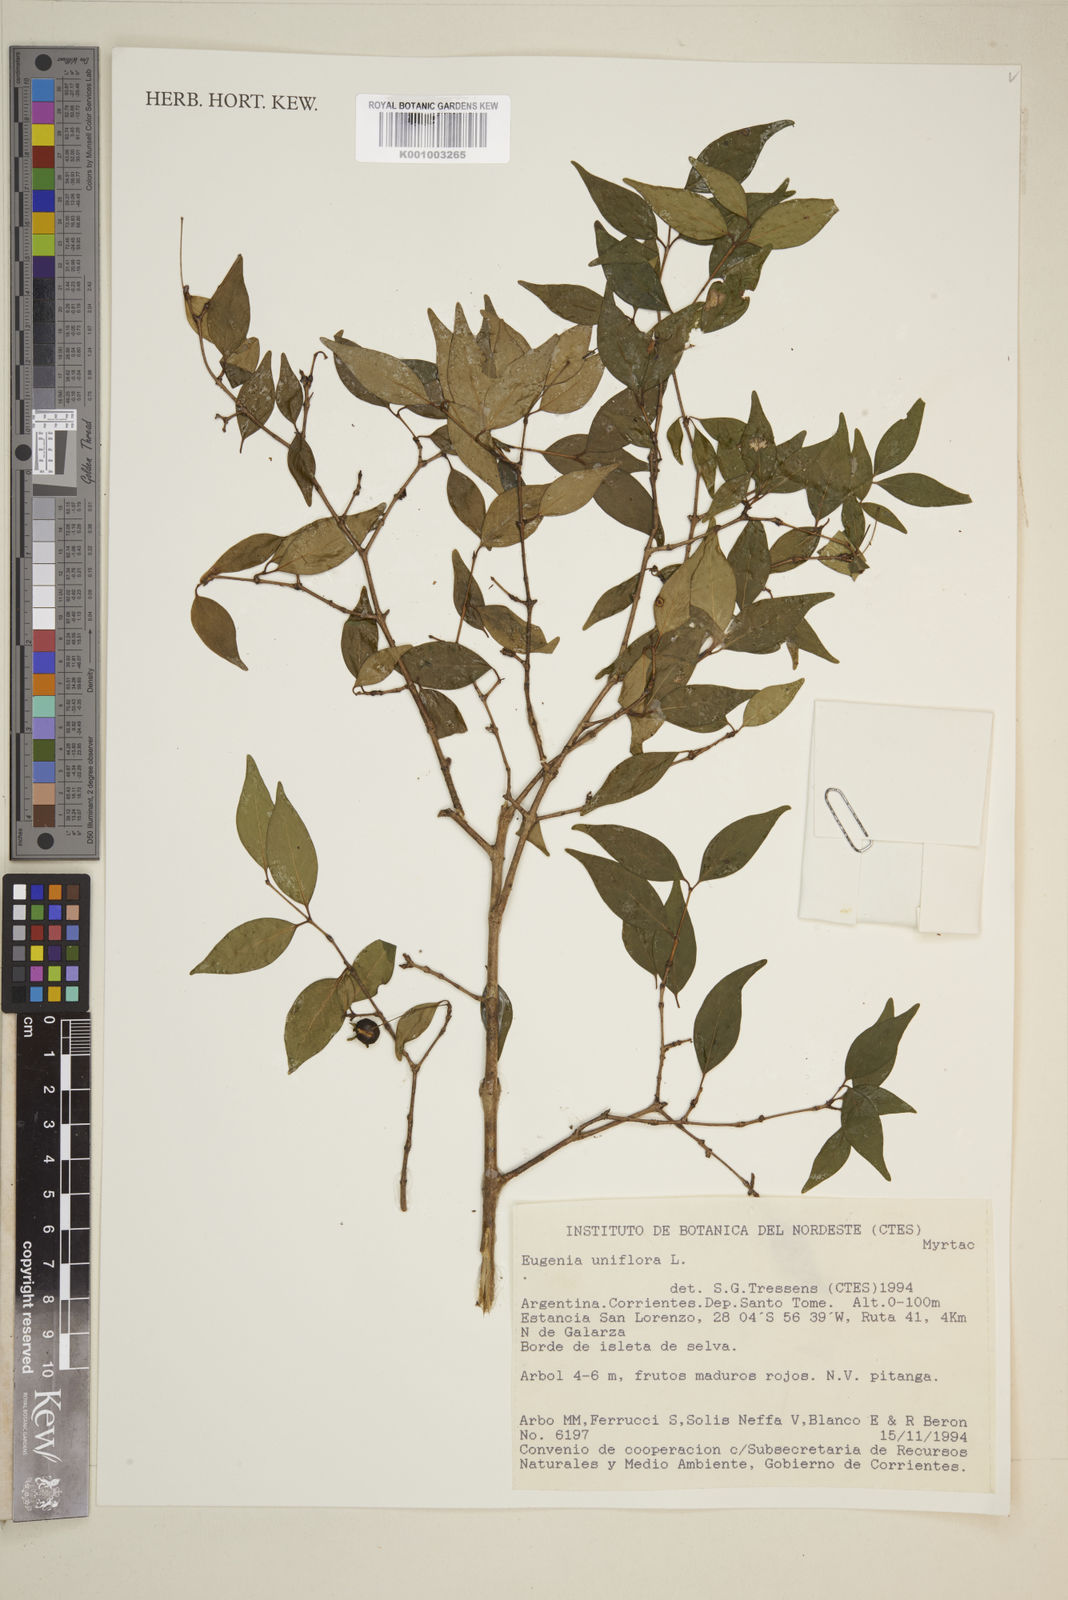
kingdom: Plantae
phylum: Tracheophyta
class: Magnoliopsida
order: Myrtales
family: Myrtaceae
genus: Eugenia
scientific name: Eugenia uniflora
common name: Surinam cherry
